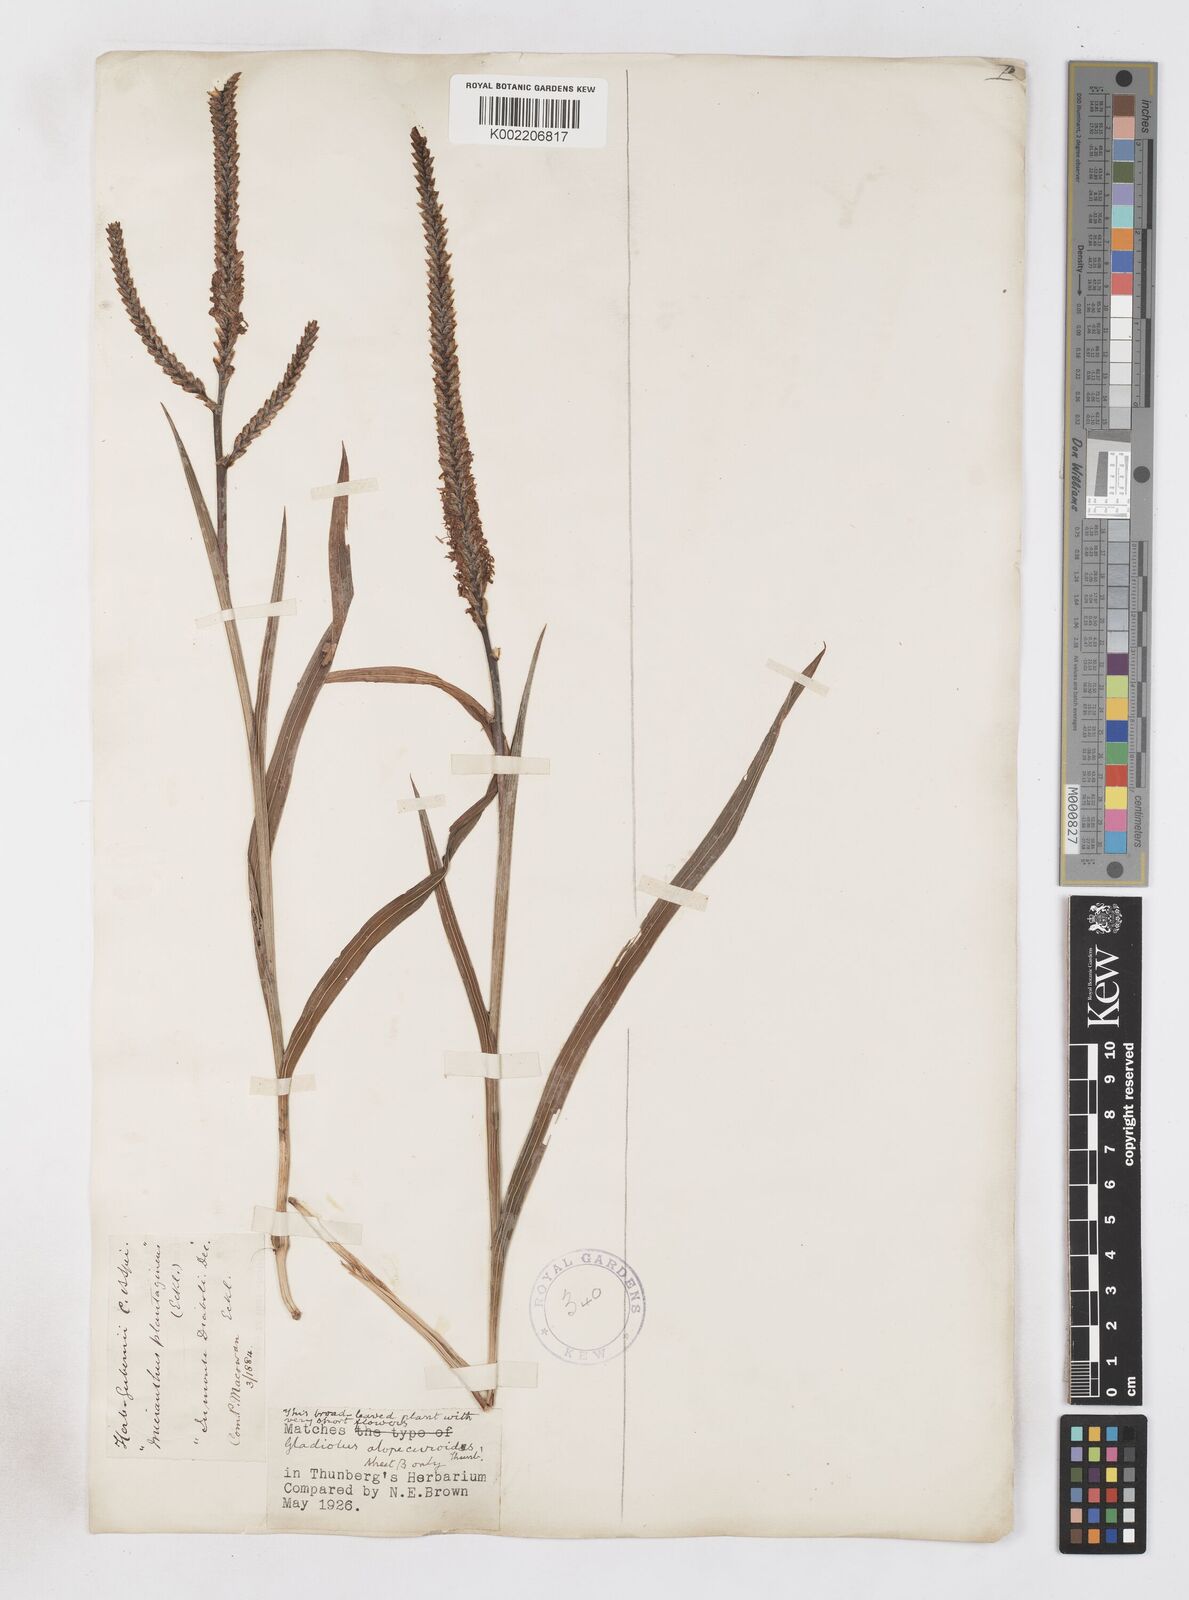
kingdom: Plantae
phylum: Tracheophyta
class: Liliopsida
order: Asparagales
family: Iridaceae
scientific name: Iridaceae
